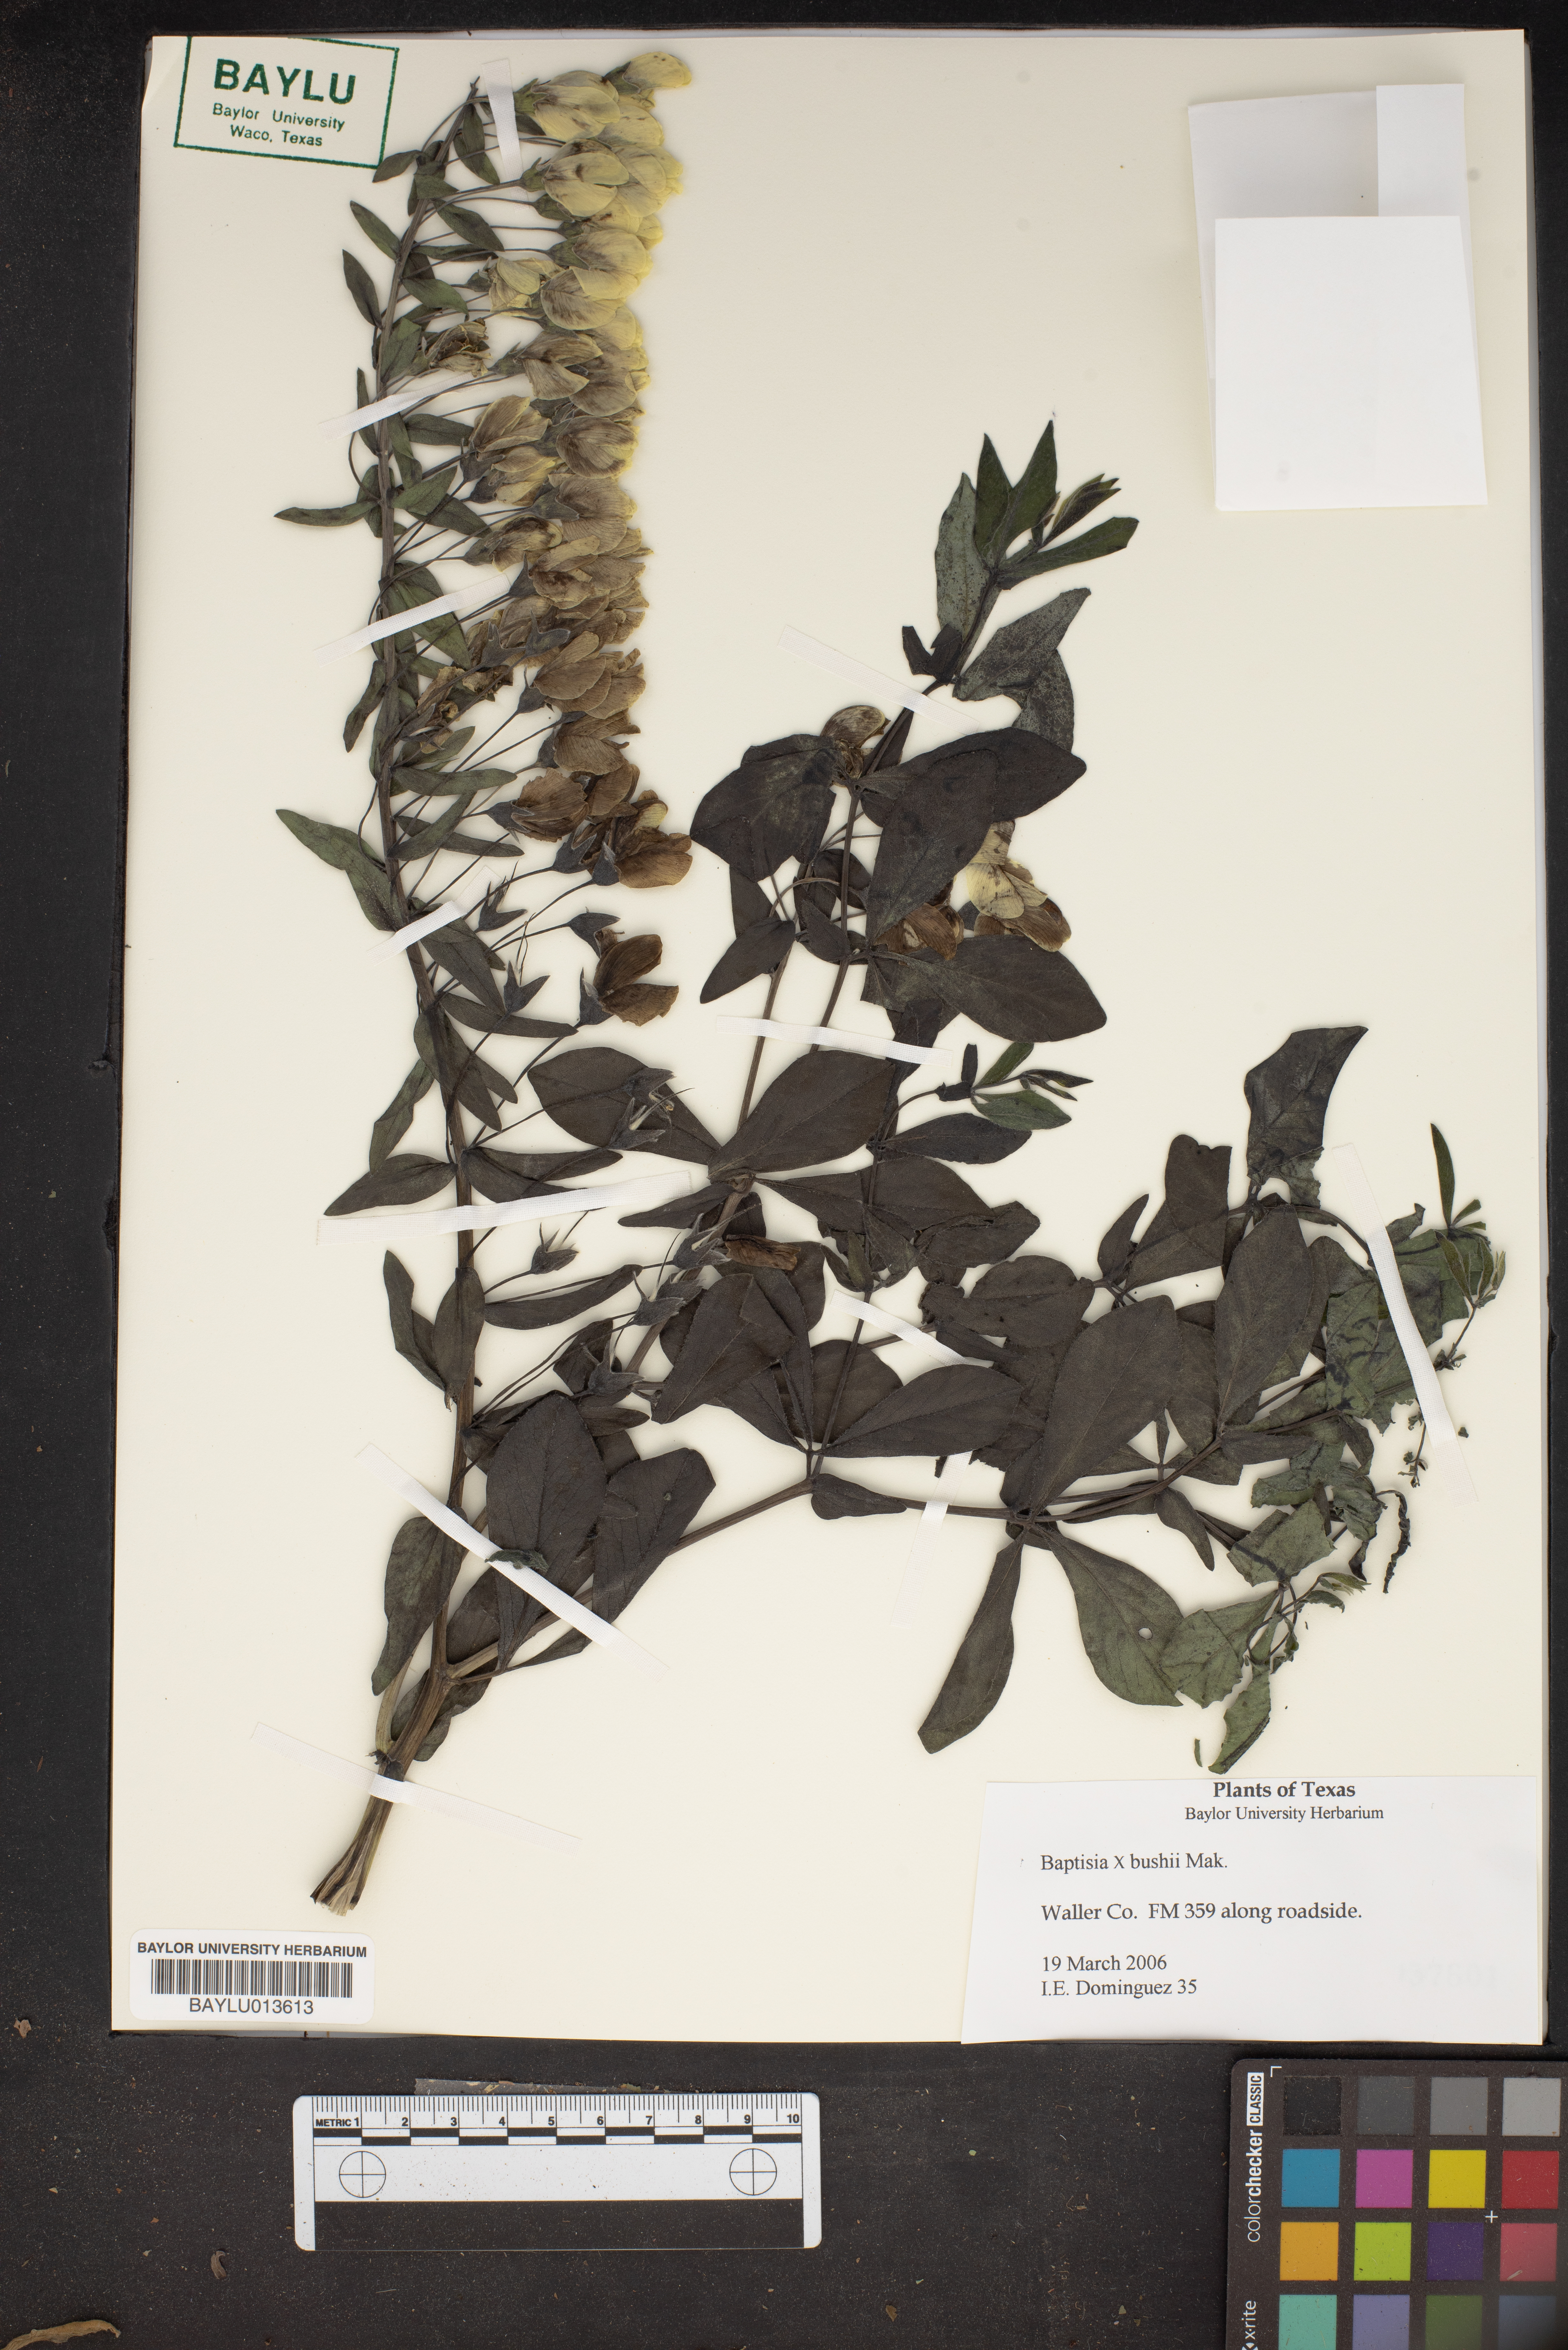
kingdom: Plantae
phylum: Tracheophyta
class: Magnoliopsida
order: Fabales
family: Fabaceae
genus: Baptisia
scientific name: Baptisia
